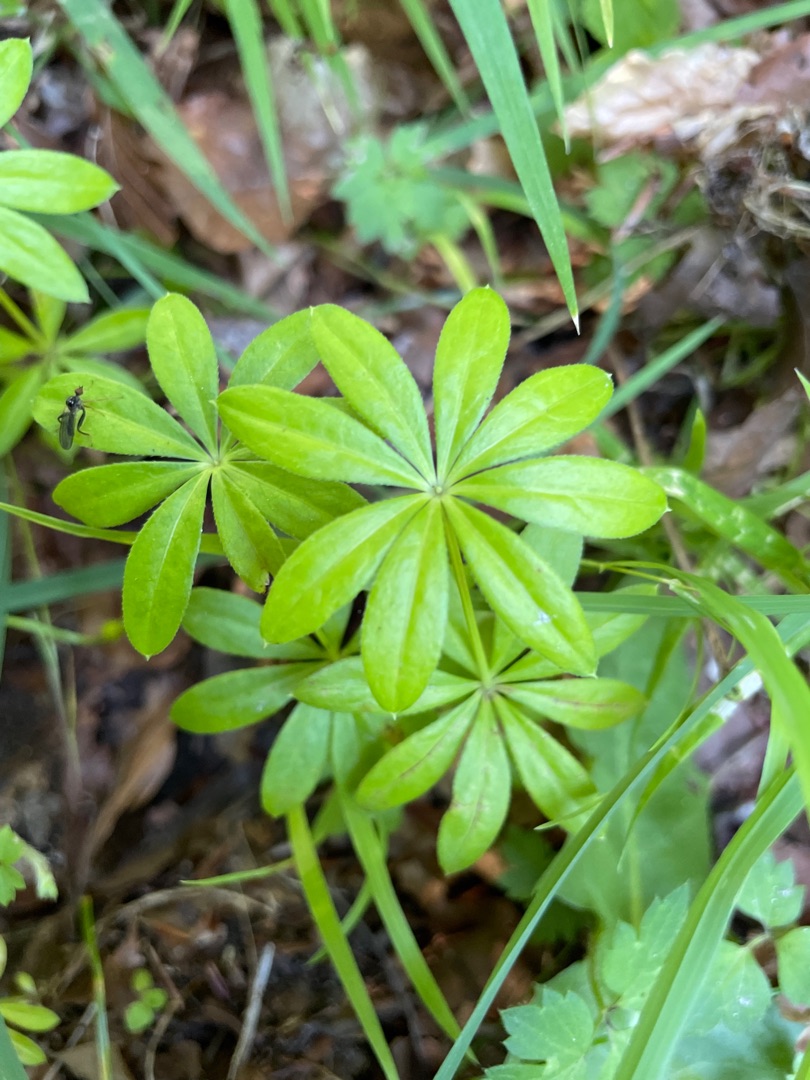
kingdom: Plantae
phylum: Tracheophyta
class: Magnoliopsida
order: Gentianales
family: Rubiaceae
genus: Galium
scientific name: Galium odoratum
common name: Skovmærke
